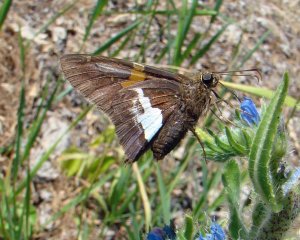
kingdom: Animalia
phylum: Arthropoda
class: Insecta
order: Lepidoptera
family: Hesperiidae
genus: Epargyreus
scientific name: Epargyreus clarus
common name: Silver-spotted Skipper
